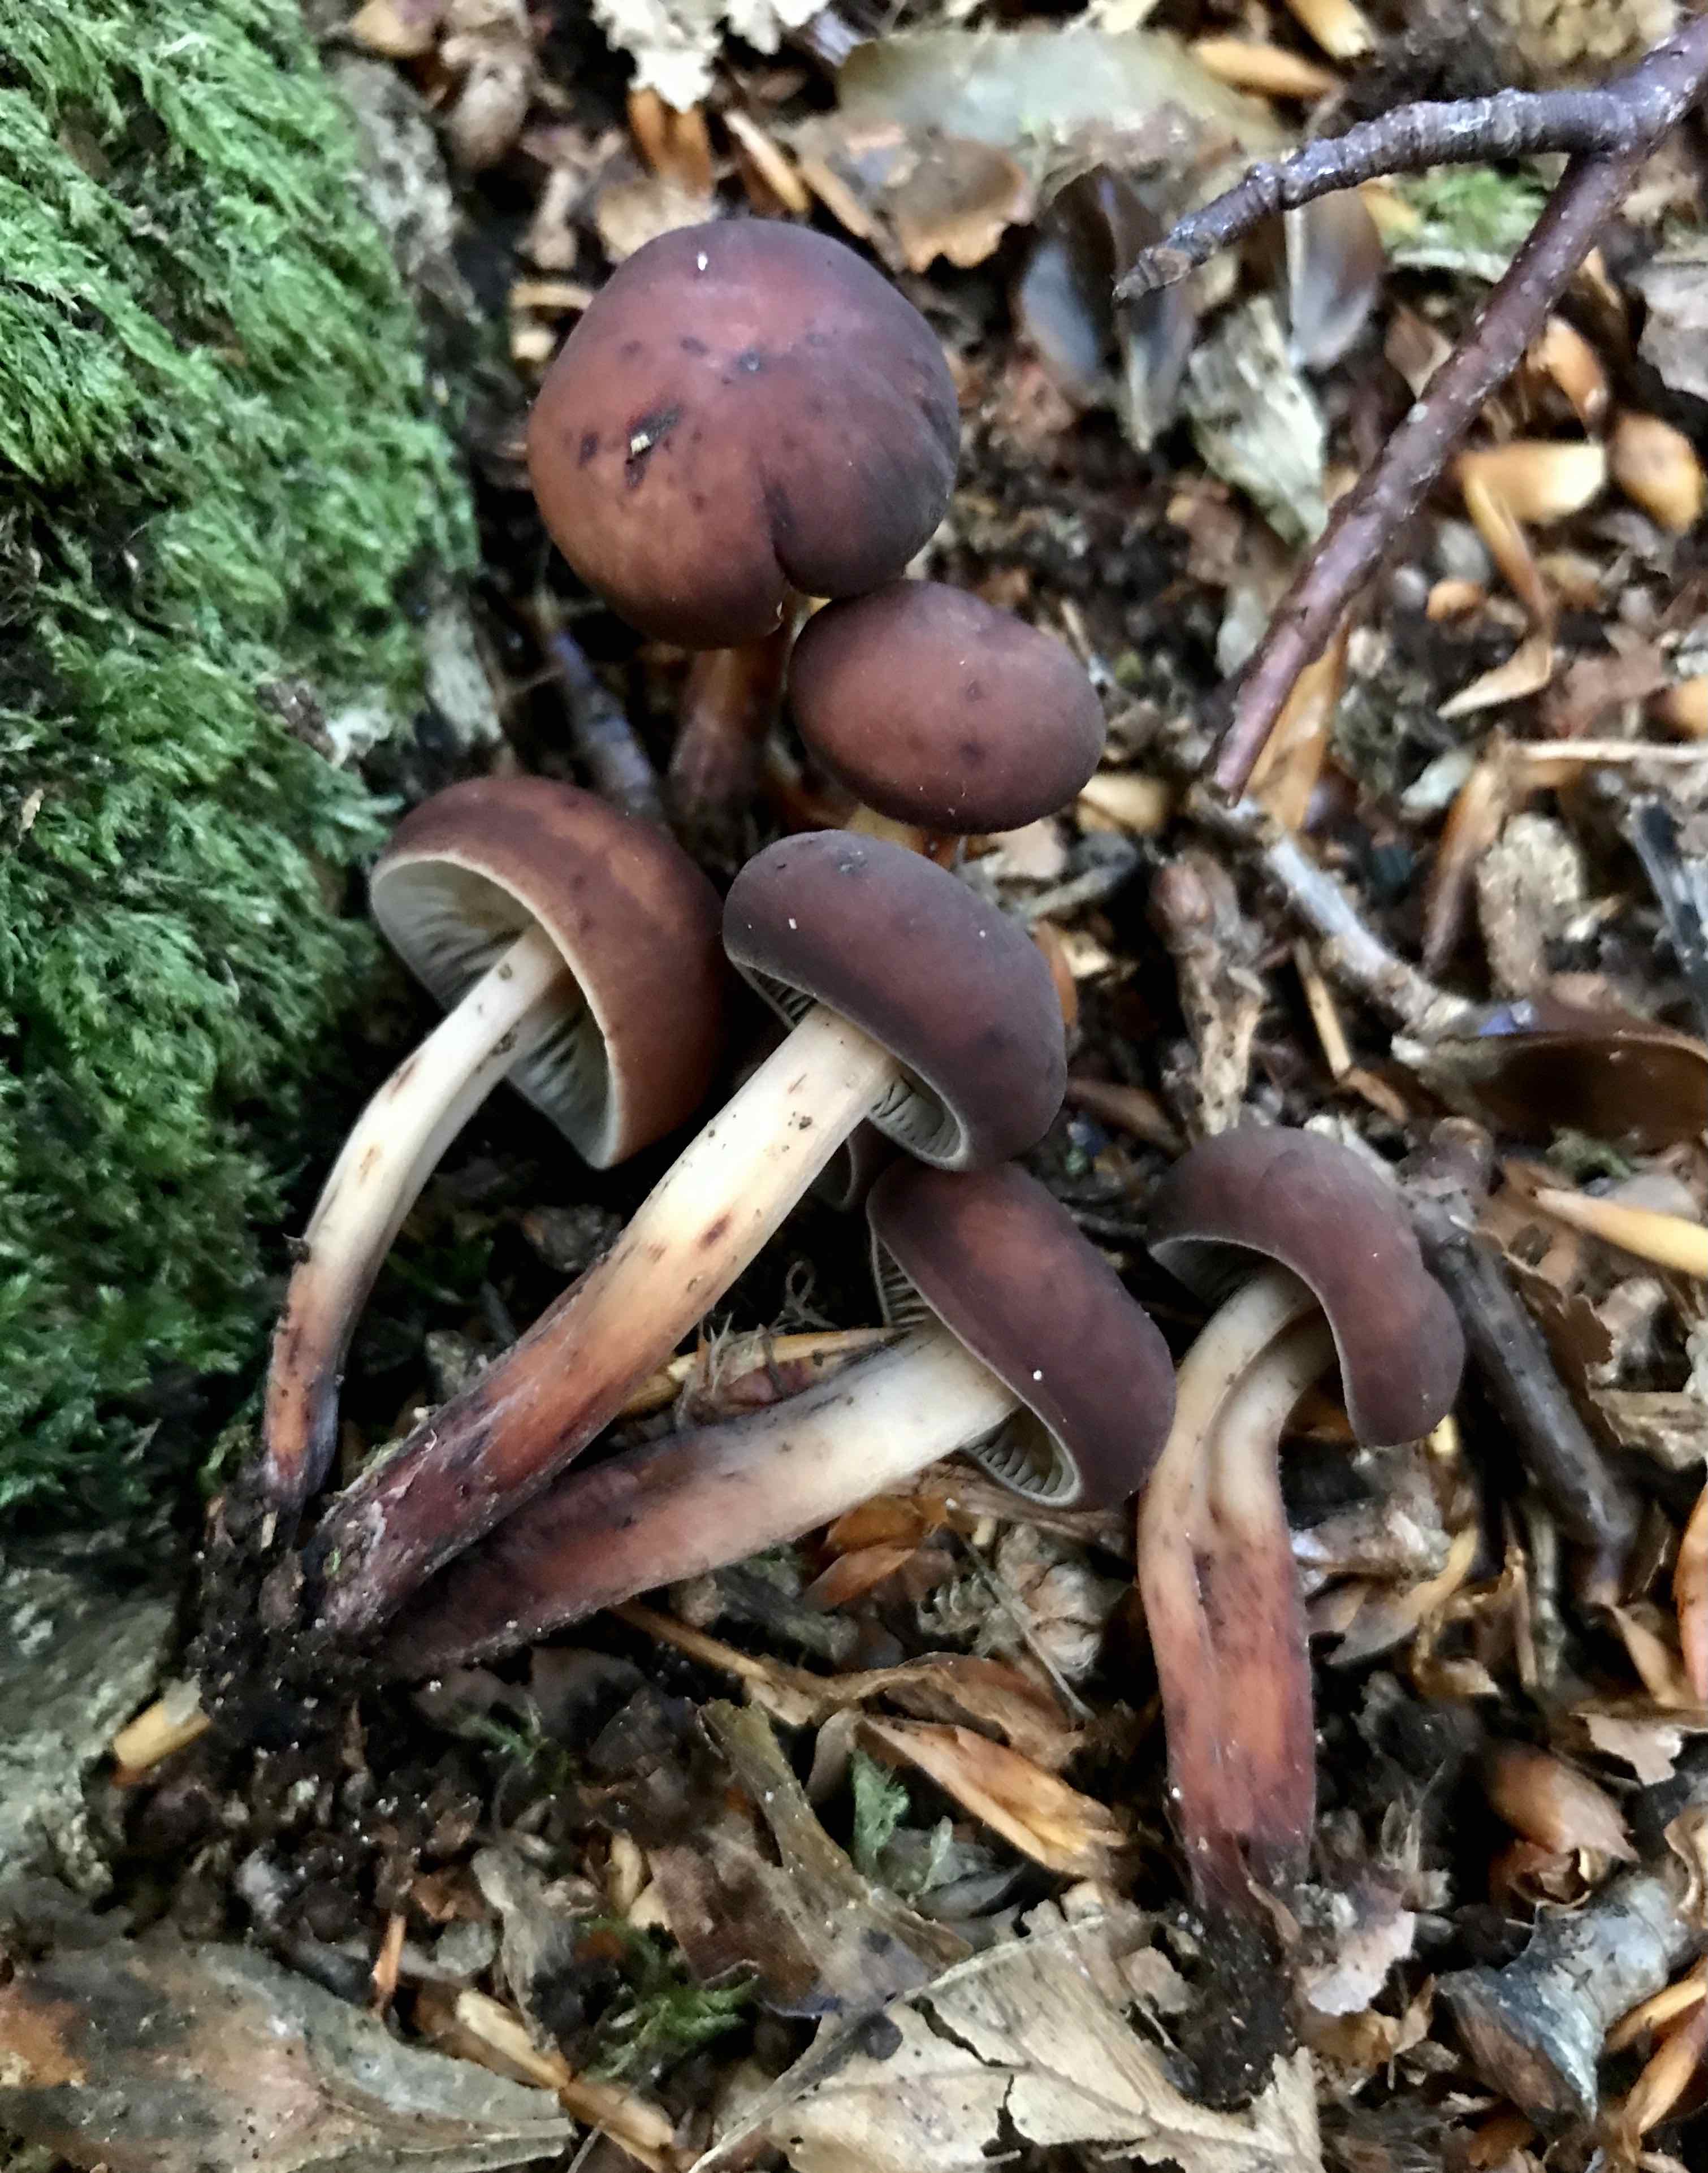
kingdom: Fungi
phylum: Basidiomycota
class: Agaricomycetes
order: Agaricales
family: Omphalotaceae
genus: Gymnopus
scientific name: Gymnopus fusipes
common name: tenstokket fladhat
